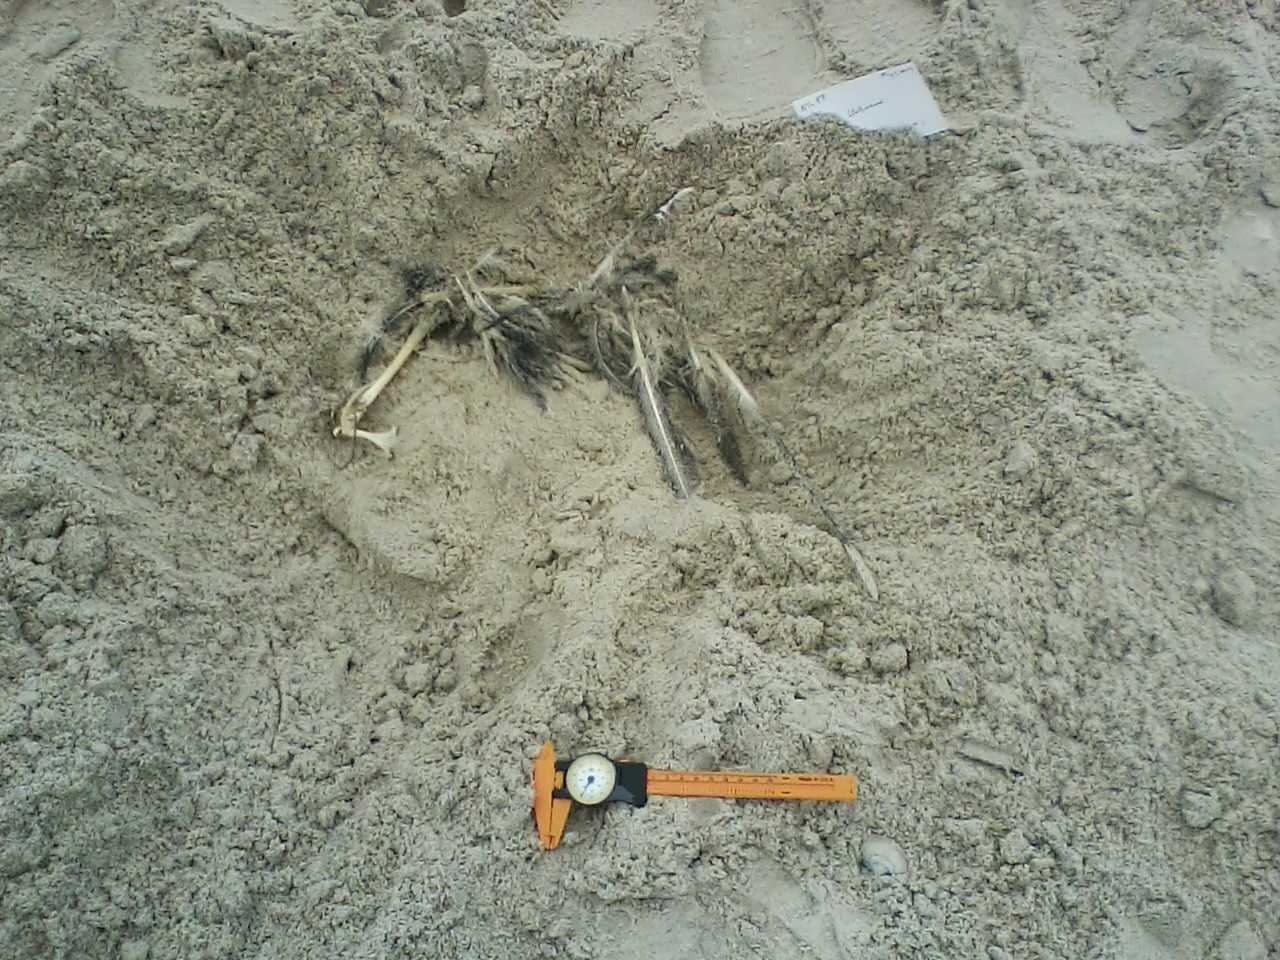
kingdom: Animalia
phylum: Chordata
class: Aves
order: Anseriformes
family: Anatidae
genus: Melanitta
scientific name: Melanitta nigra
